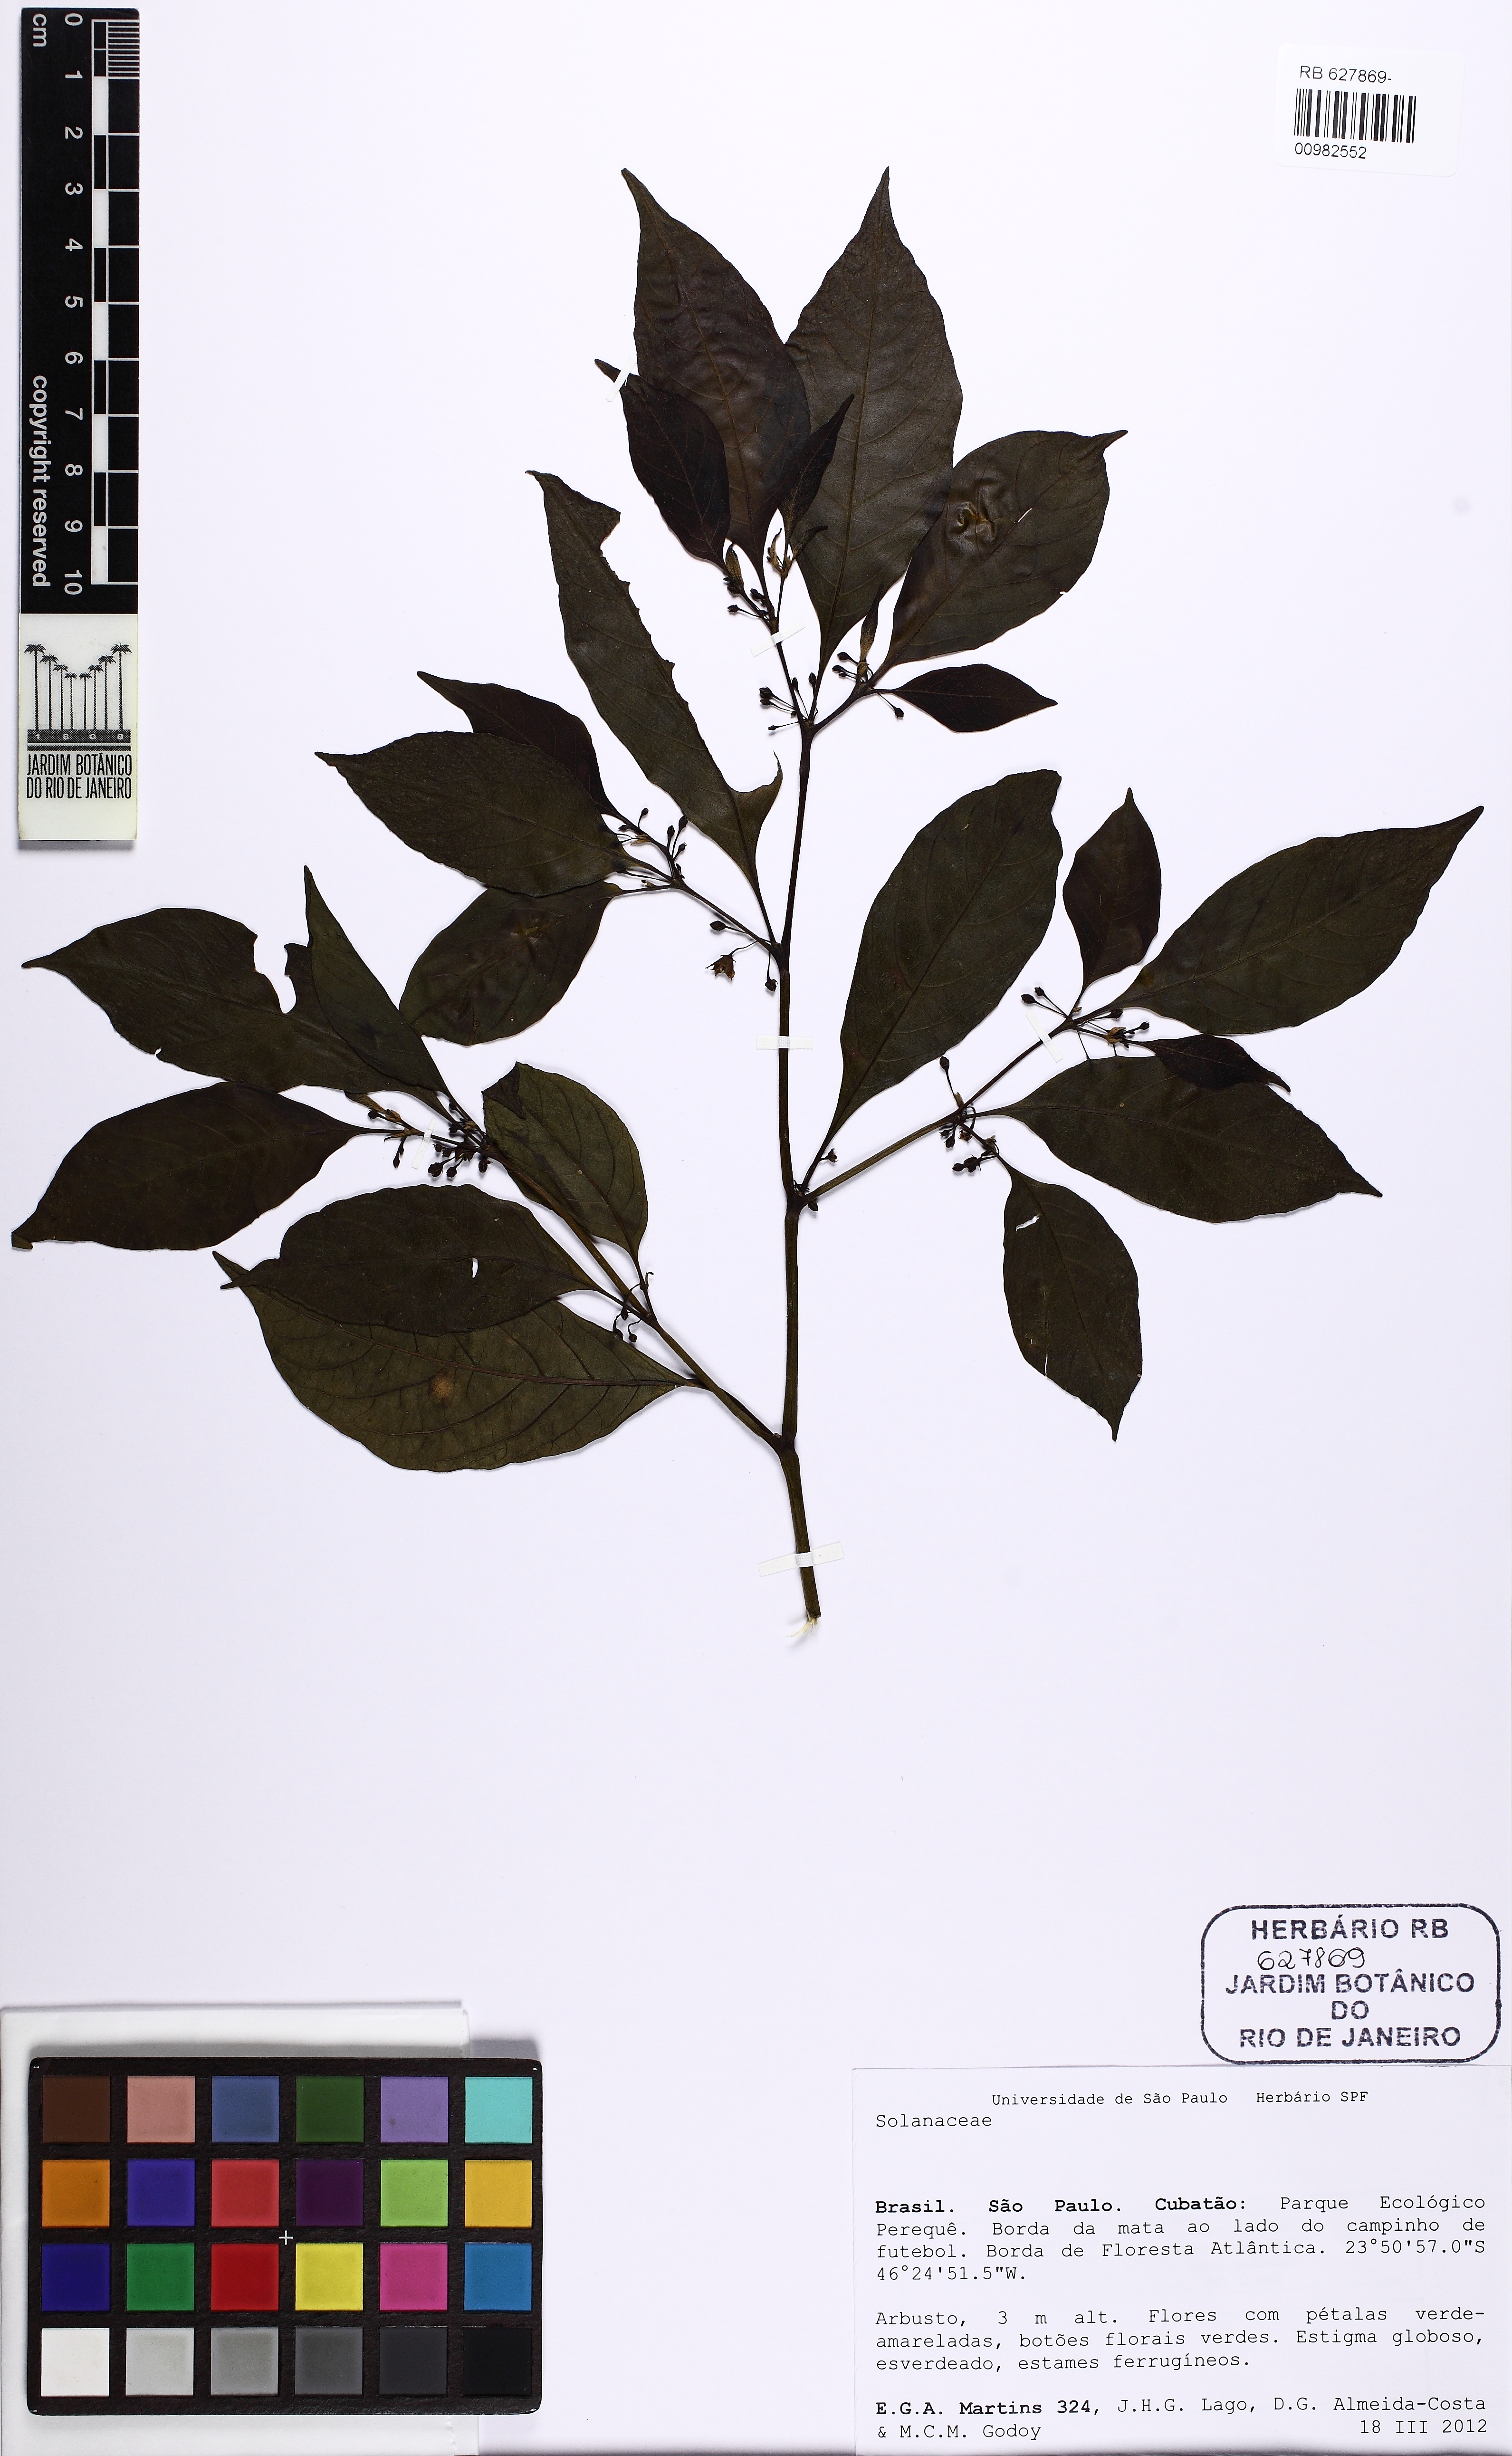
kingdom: Plantae
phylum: Tracheophyta
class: Magnoliopsida
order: Solanales
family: Solanaceae
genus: Athenaea
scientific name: Athenaea fasciculata
